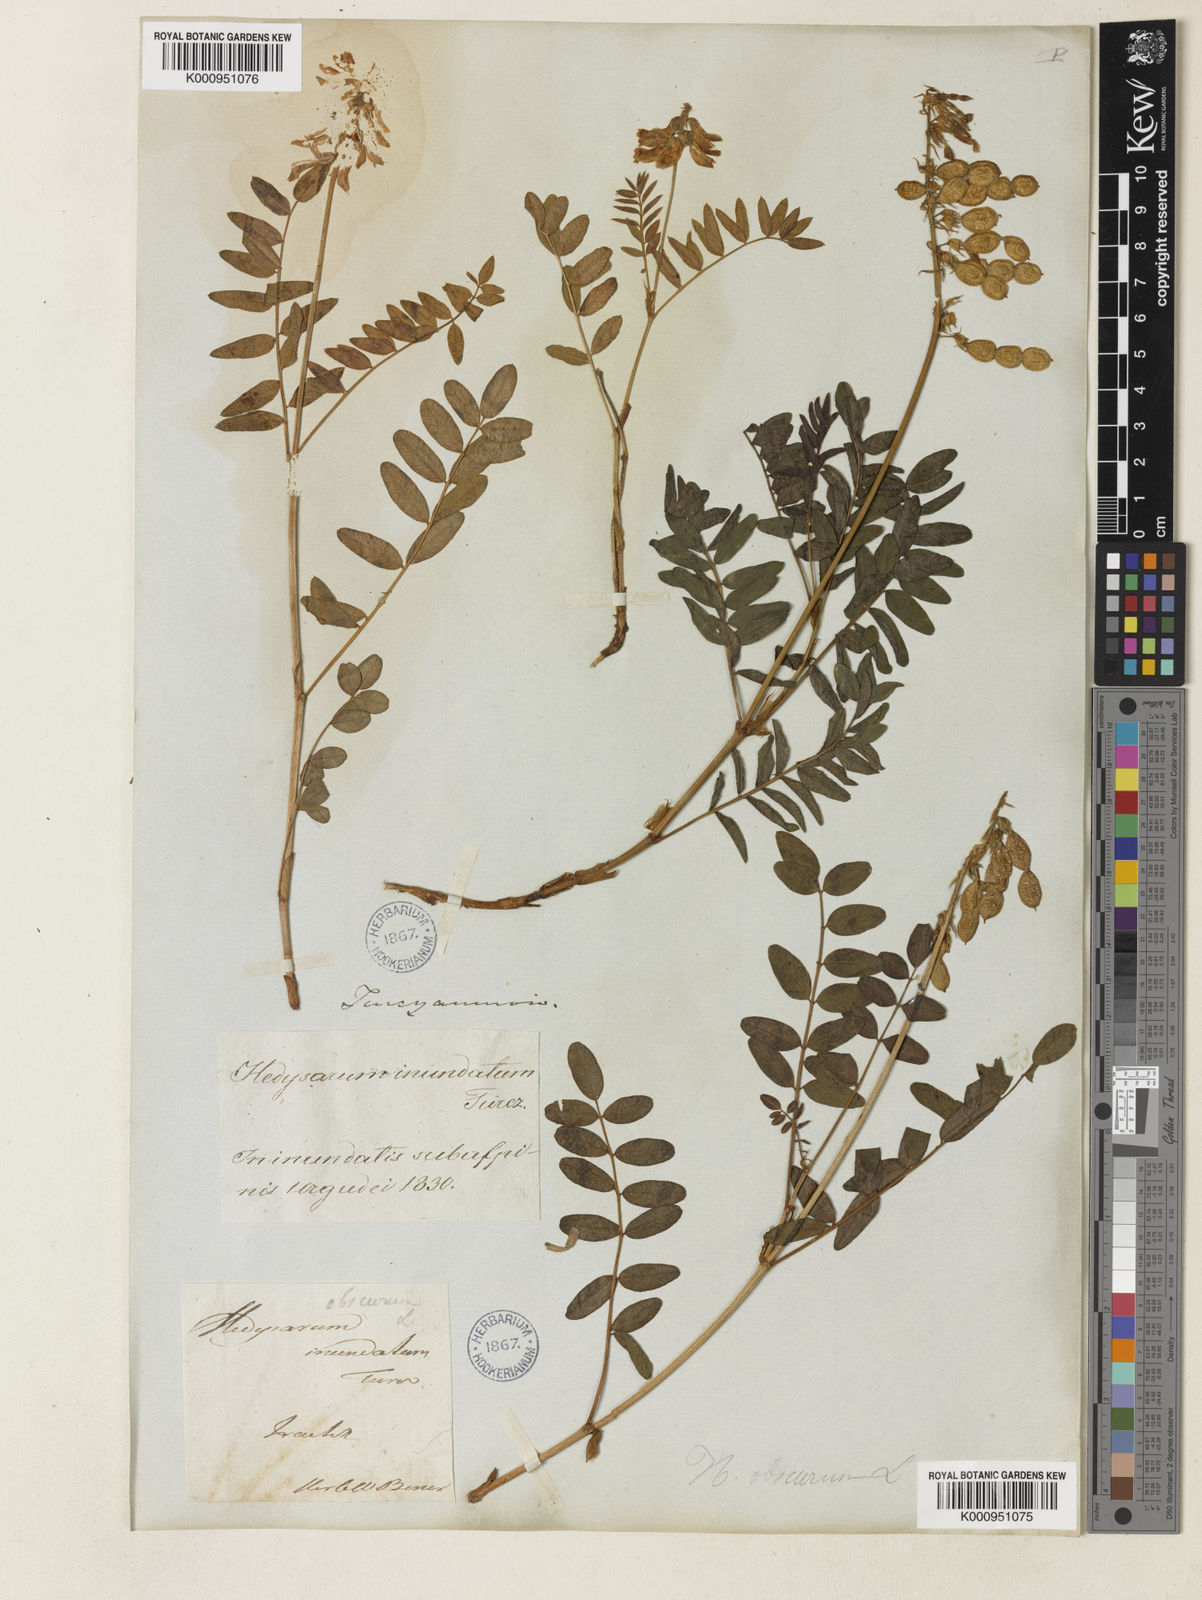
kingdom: Plantae
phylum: Tracheophyta
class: Magnoliopsida
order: Fabales
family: Fabaceae
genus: Hedysarum
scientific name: Hedysarum inundatum
